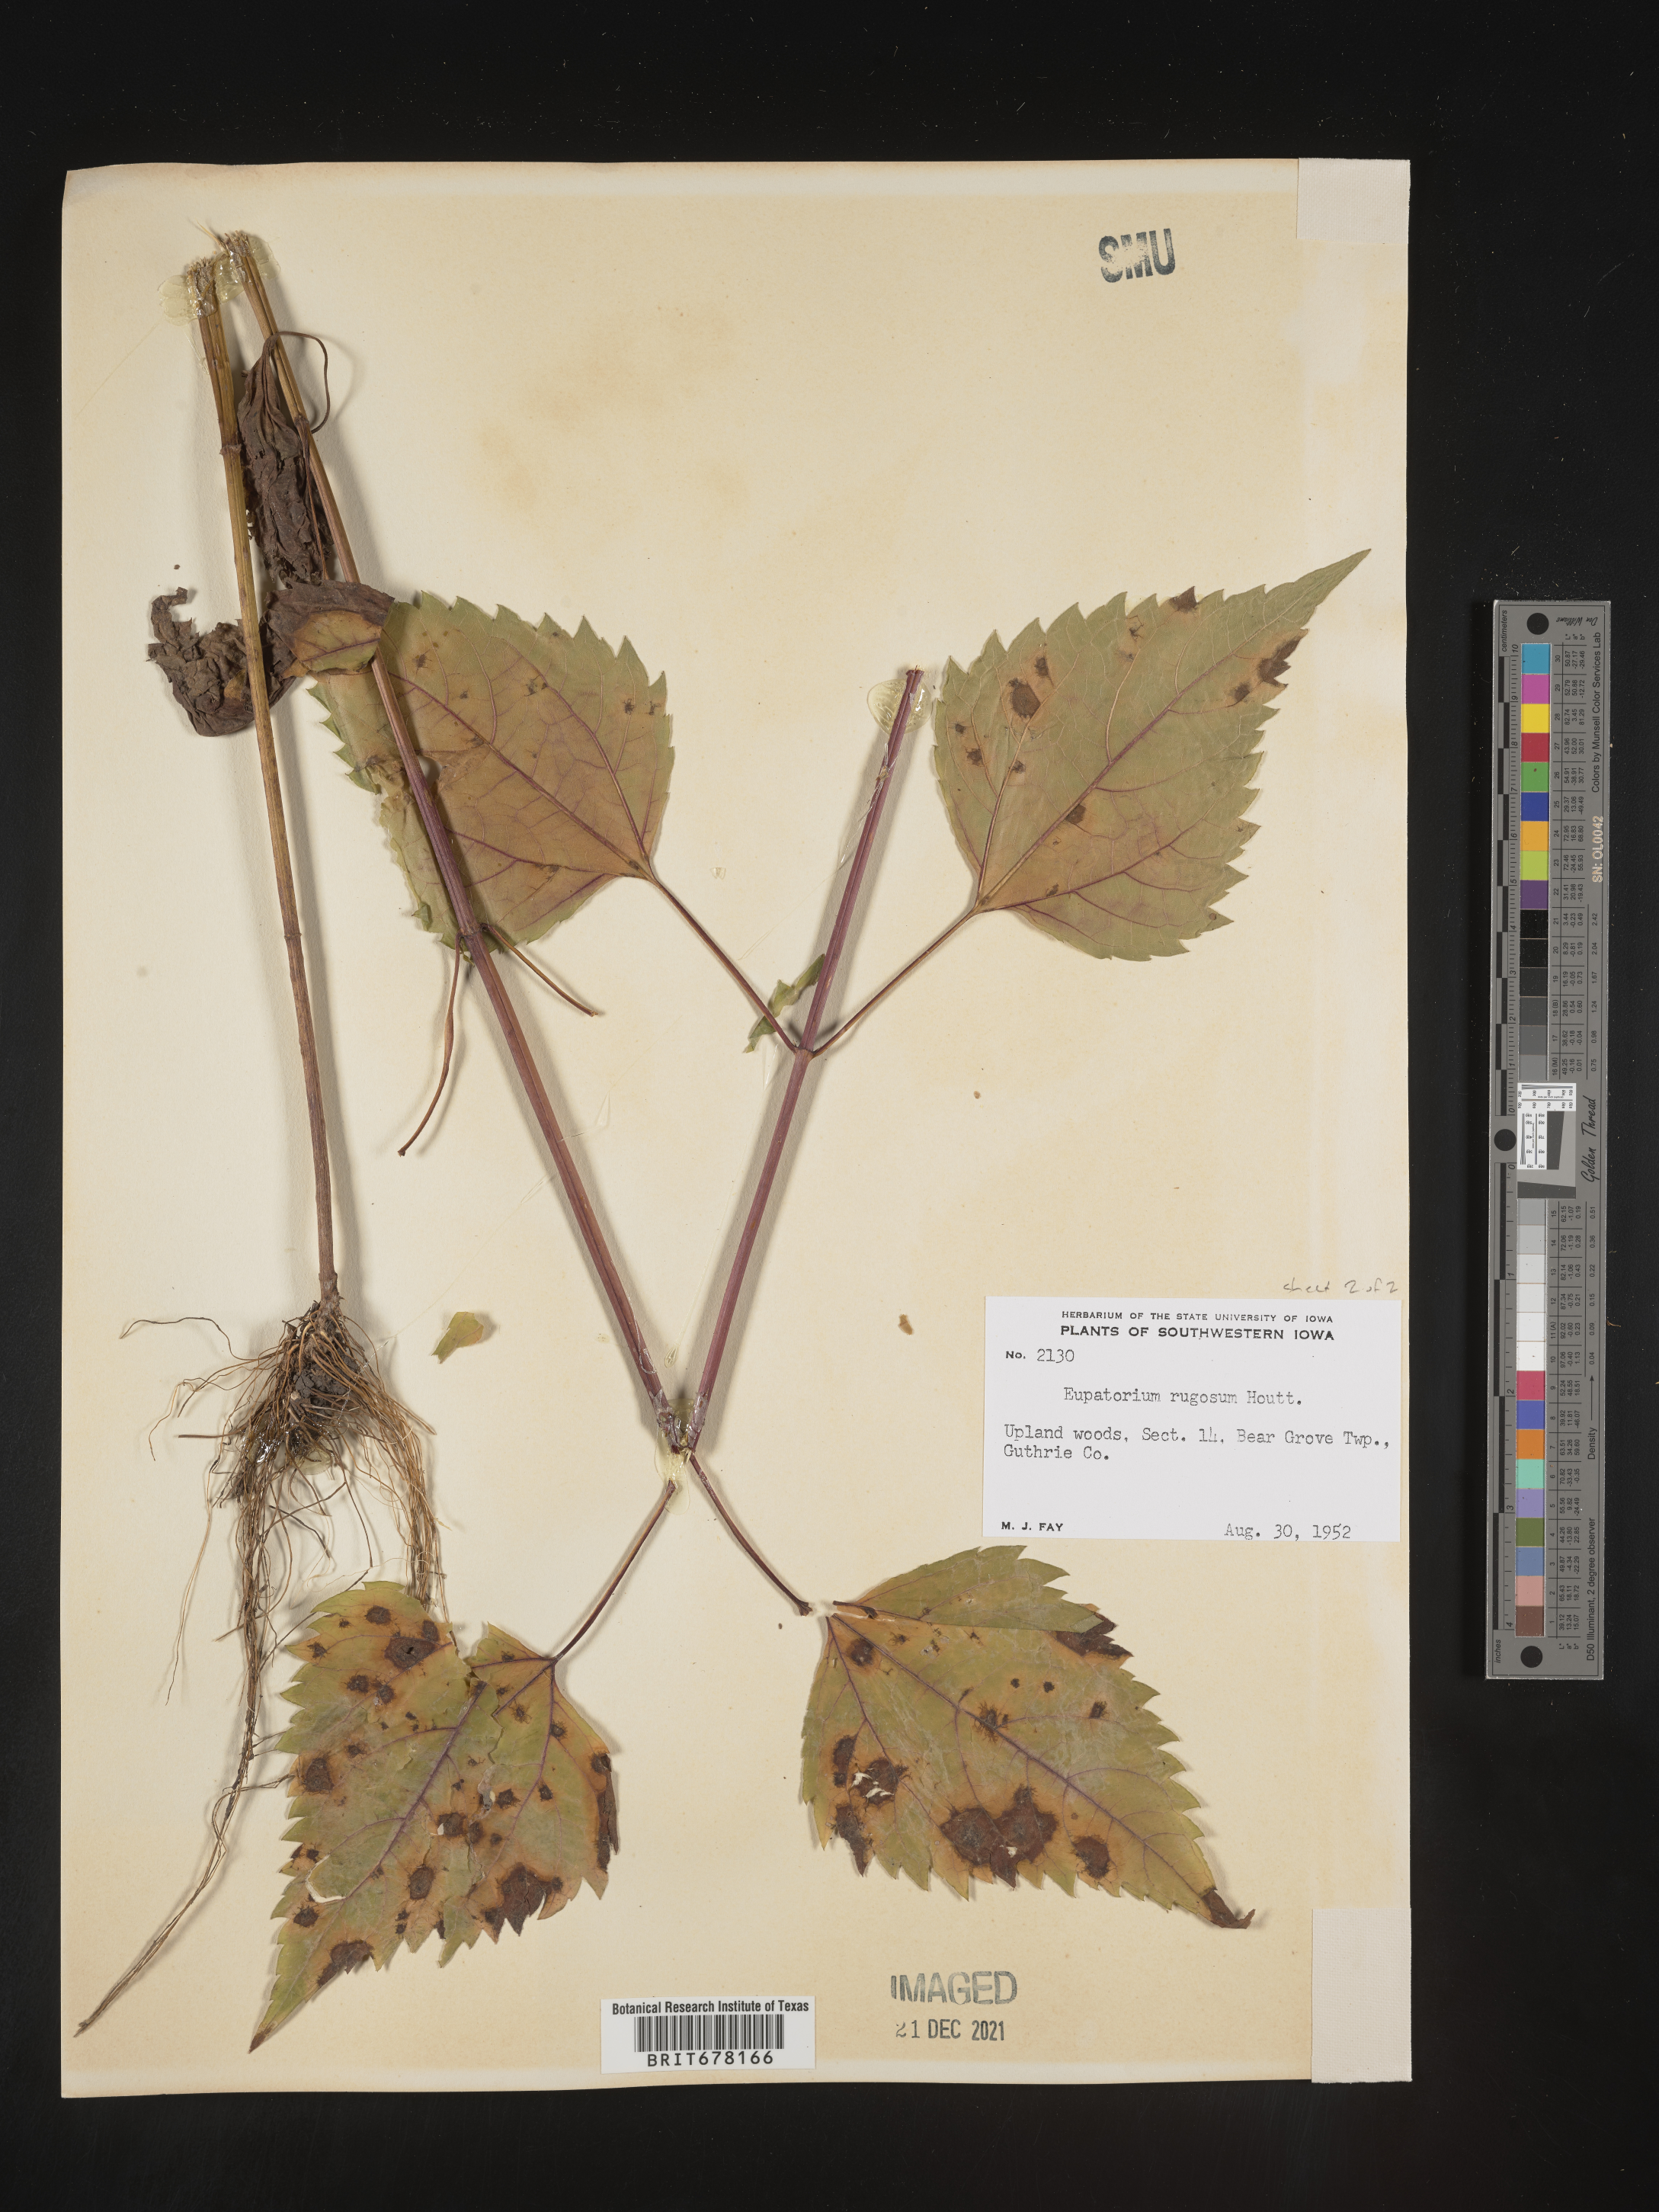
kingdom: Plantae
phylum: Tracheophyta
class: Magnoliopsida
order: Asterales
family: Asteraceae
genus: Eupatorium
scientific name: Eupatorium
